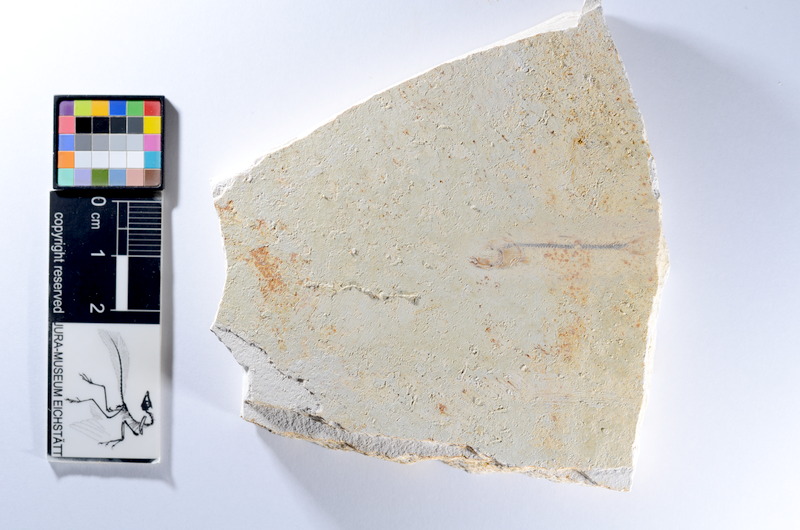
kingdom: Animalia
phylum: Chordata
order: Salmoniformes
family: Orthogonikleithridae
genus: Orthogonikleithrus
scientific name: Orthogonikleithrus hoelli
